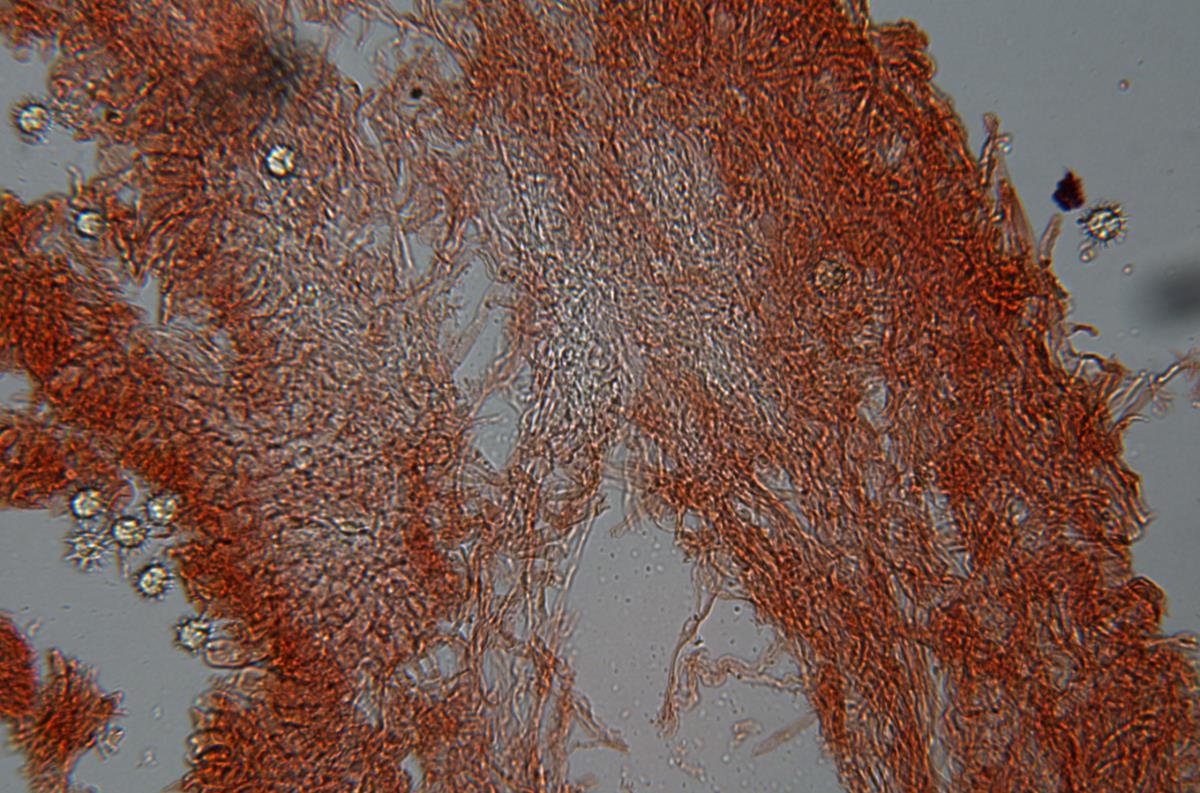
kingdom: Fungi
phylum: Basidiomycota
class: Agaricomycetes
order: Russulales
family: Russulaceae
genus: Zelleromyces
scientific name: Zelleromyces
